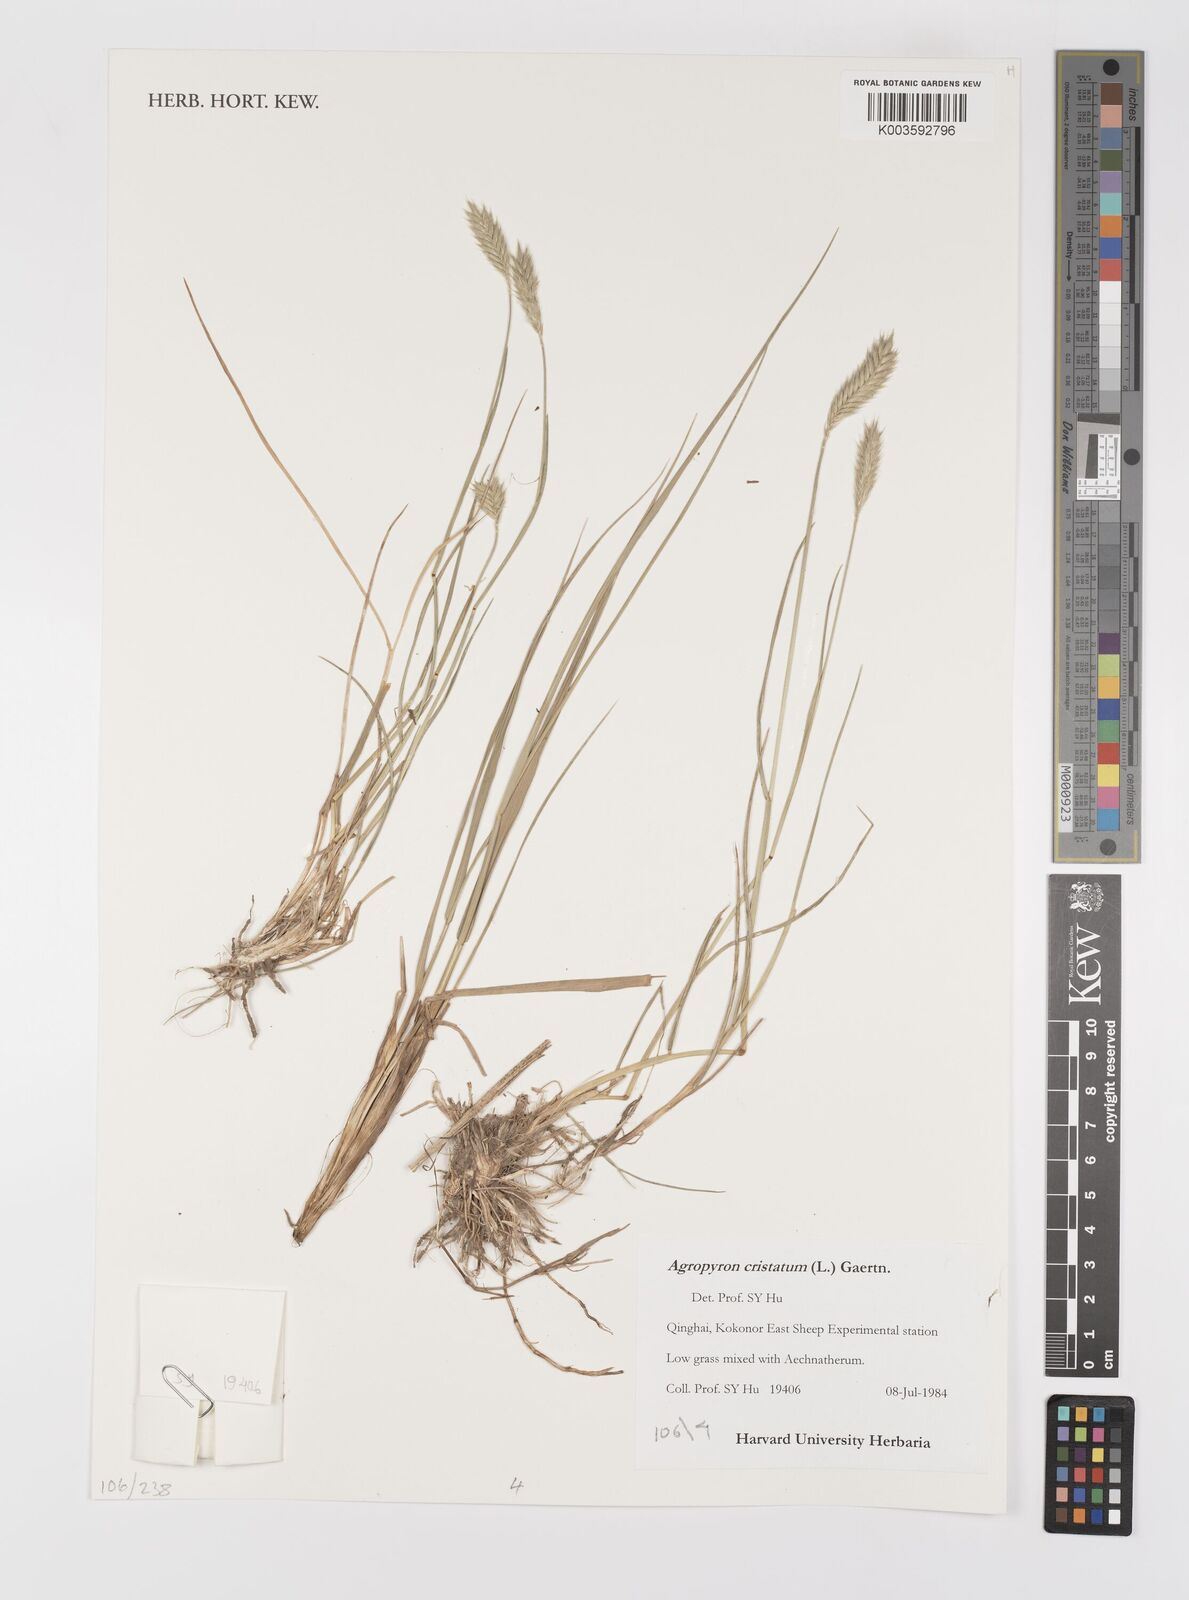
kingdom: Plantae
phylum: Tracheophyta
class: Liliopsida
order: Poales
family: Poaceae
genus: Agropyron
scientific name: Agropyron cristatum
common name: Crested wheatgrass
